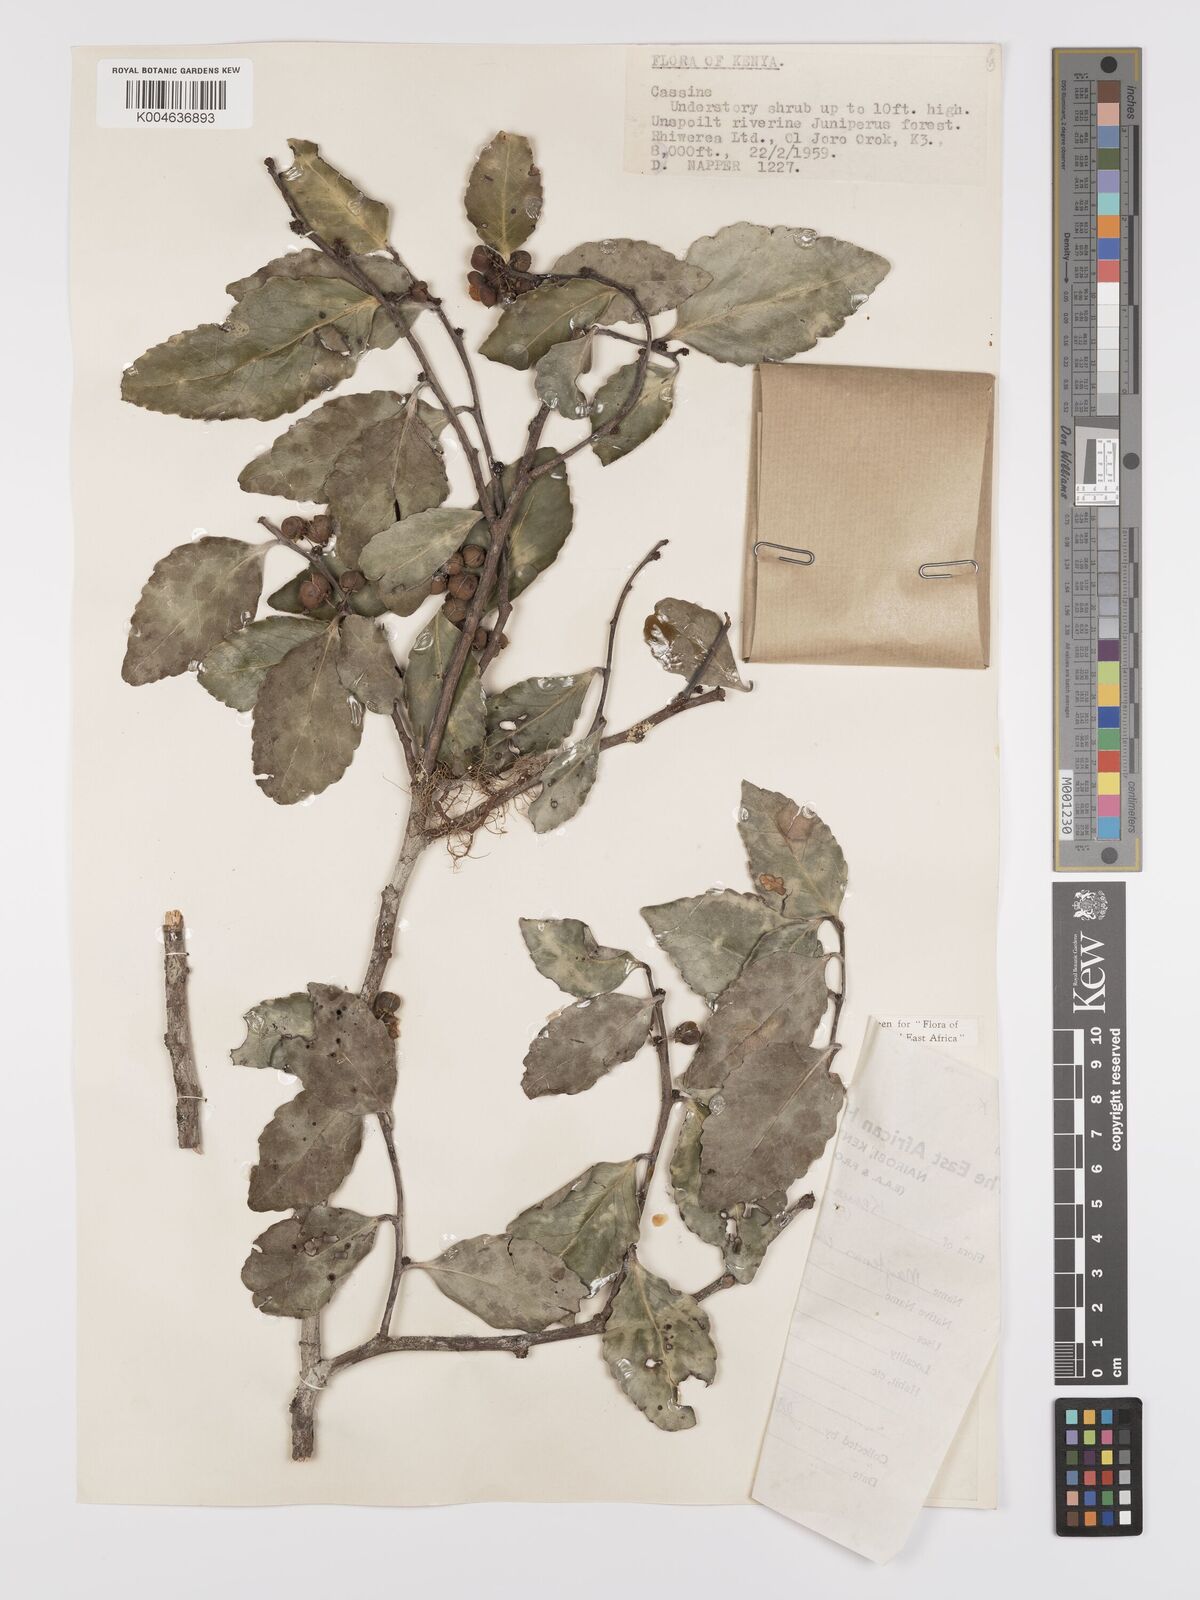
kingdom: Plantae
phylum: Tracheophyta
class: Magnoliopsida
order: Celastrales
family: Celastraceae
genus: Gymnosporia
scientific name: Gymnosporia undata
